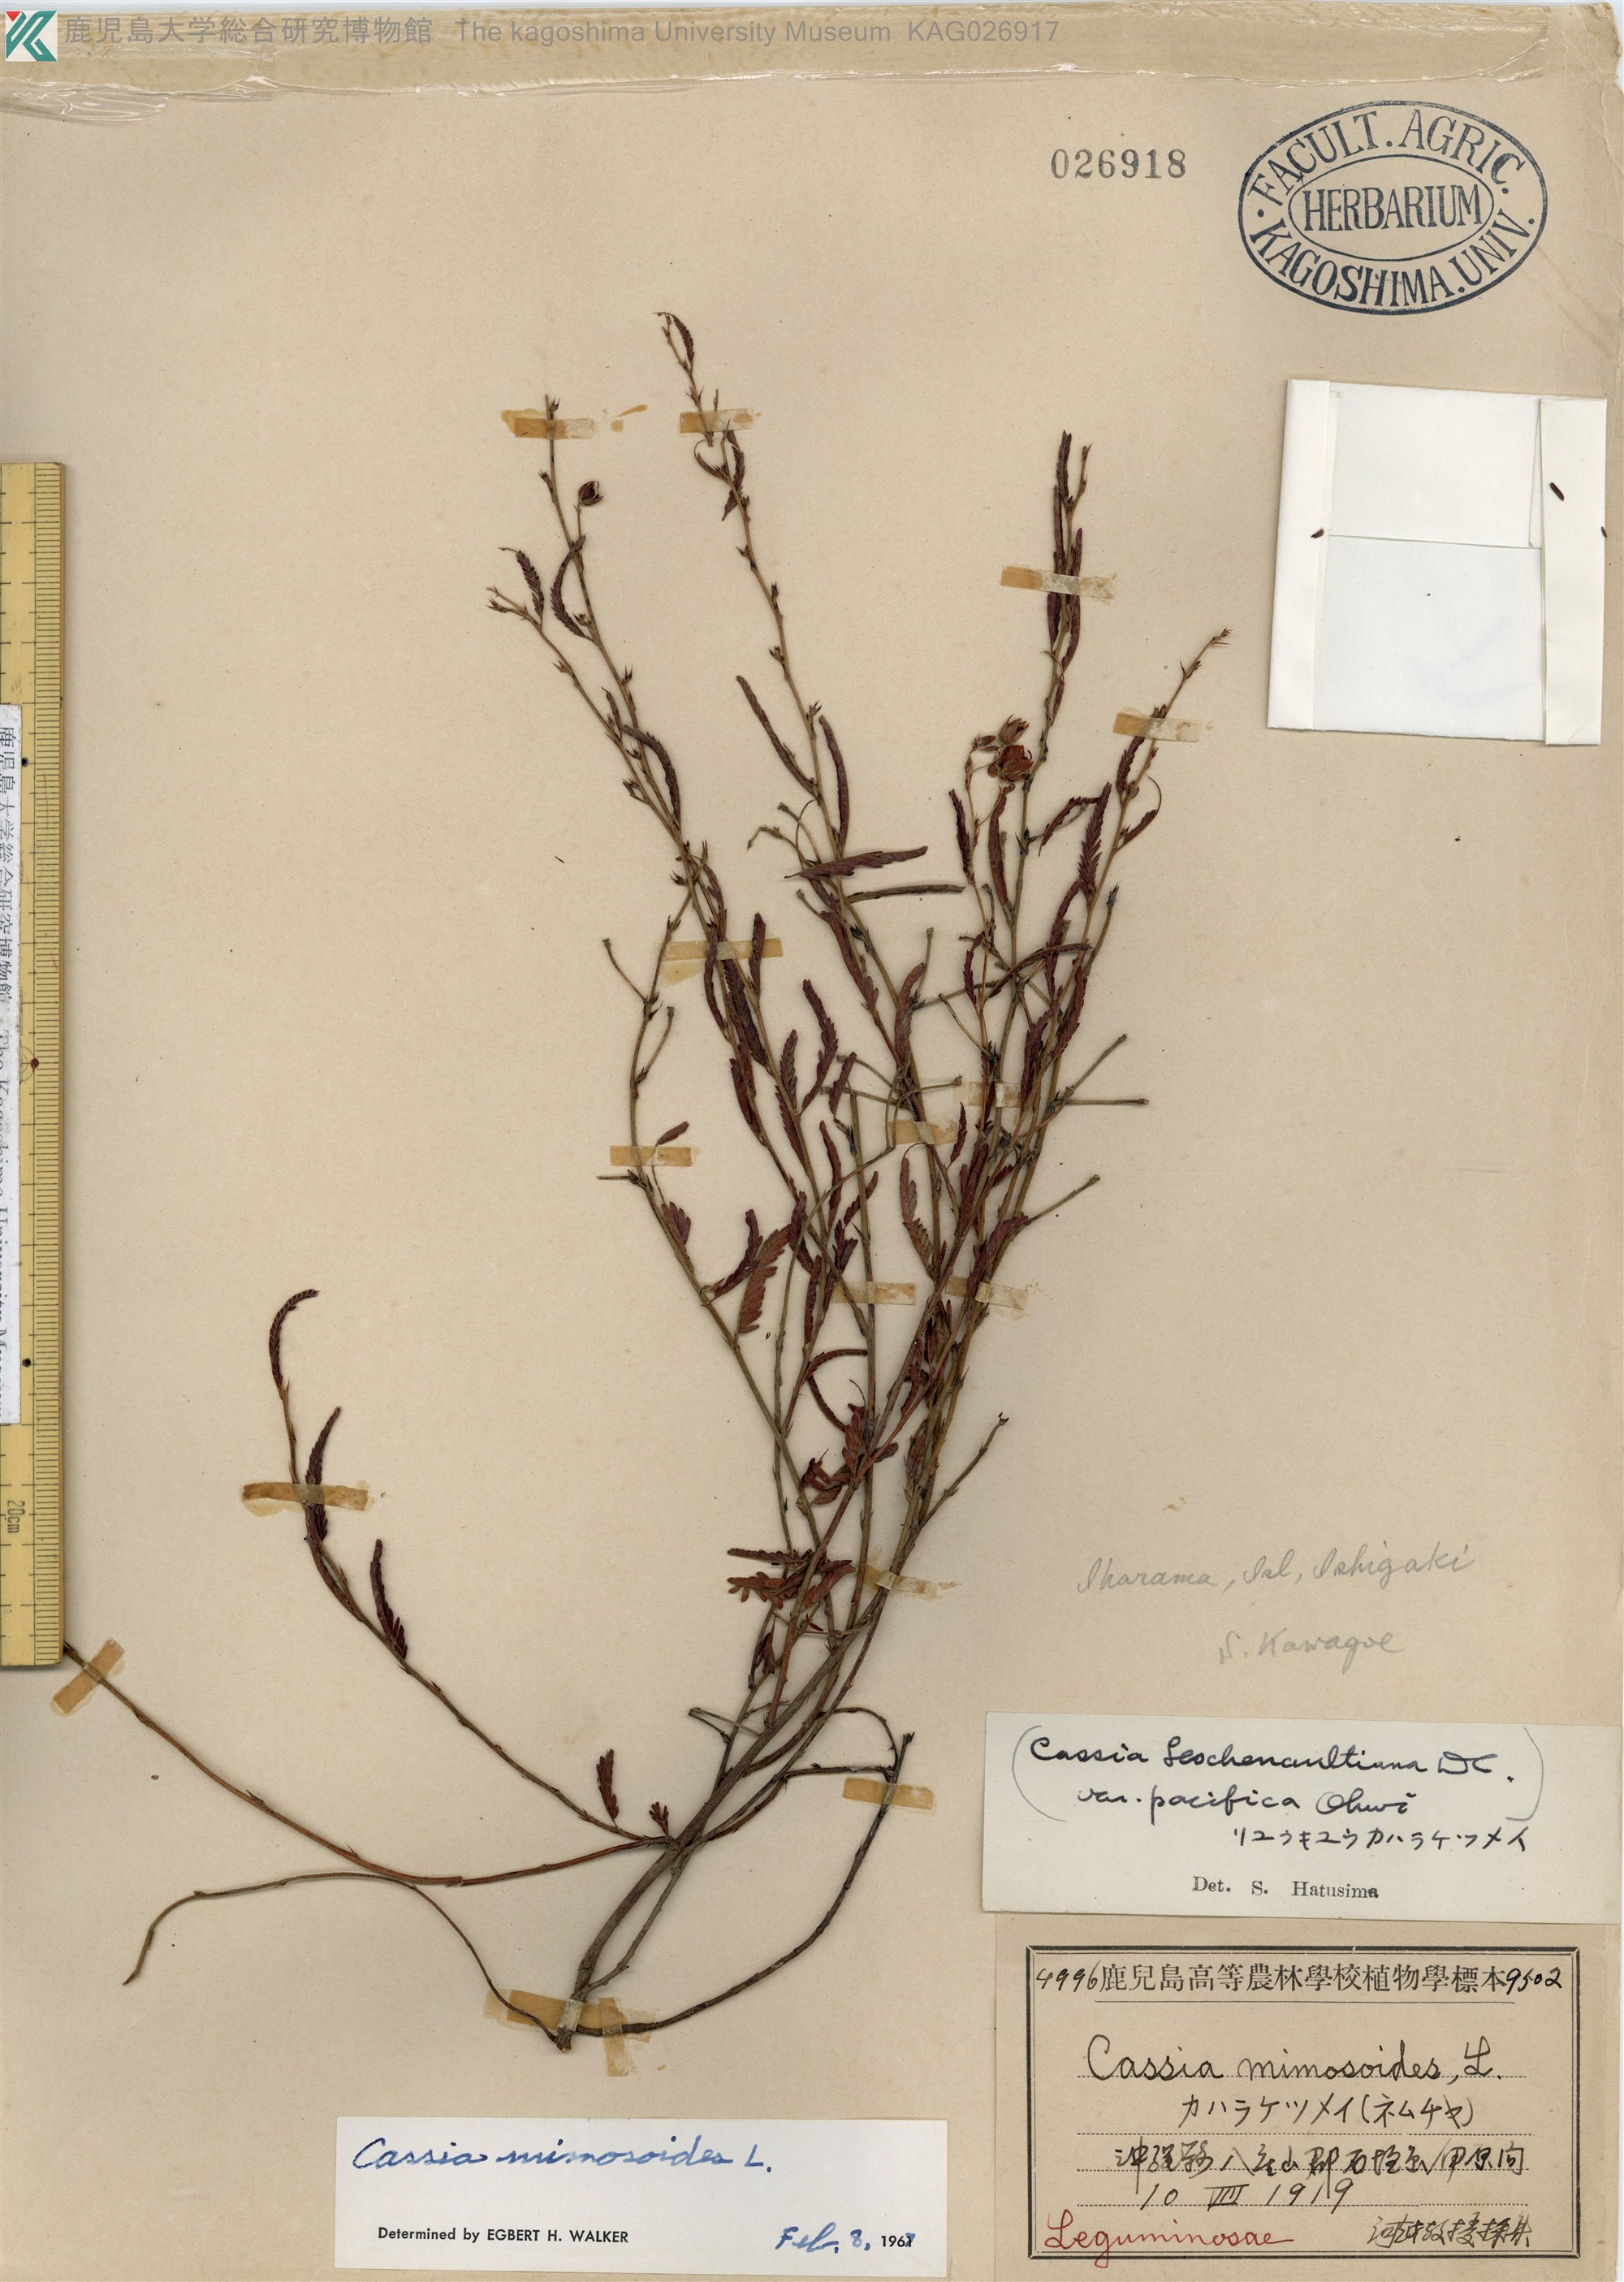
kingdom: Plantae
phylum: Tracheophyta
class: Magnoliopsida
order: Fabales
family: Fabaceae
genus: Chamaecrista
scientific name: Chamaecrista nomame
